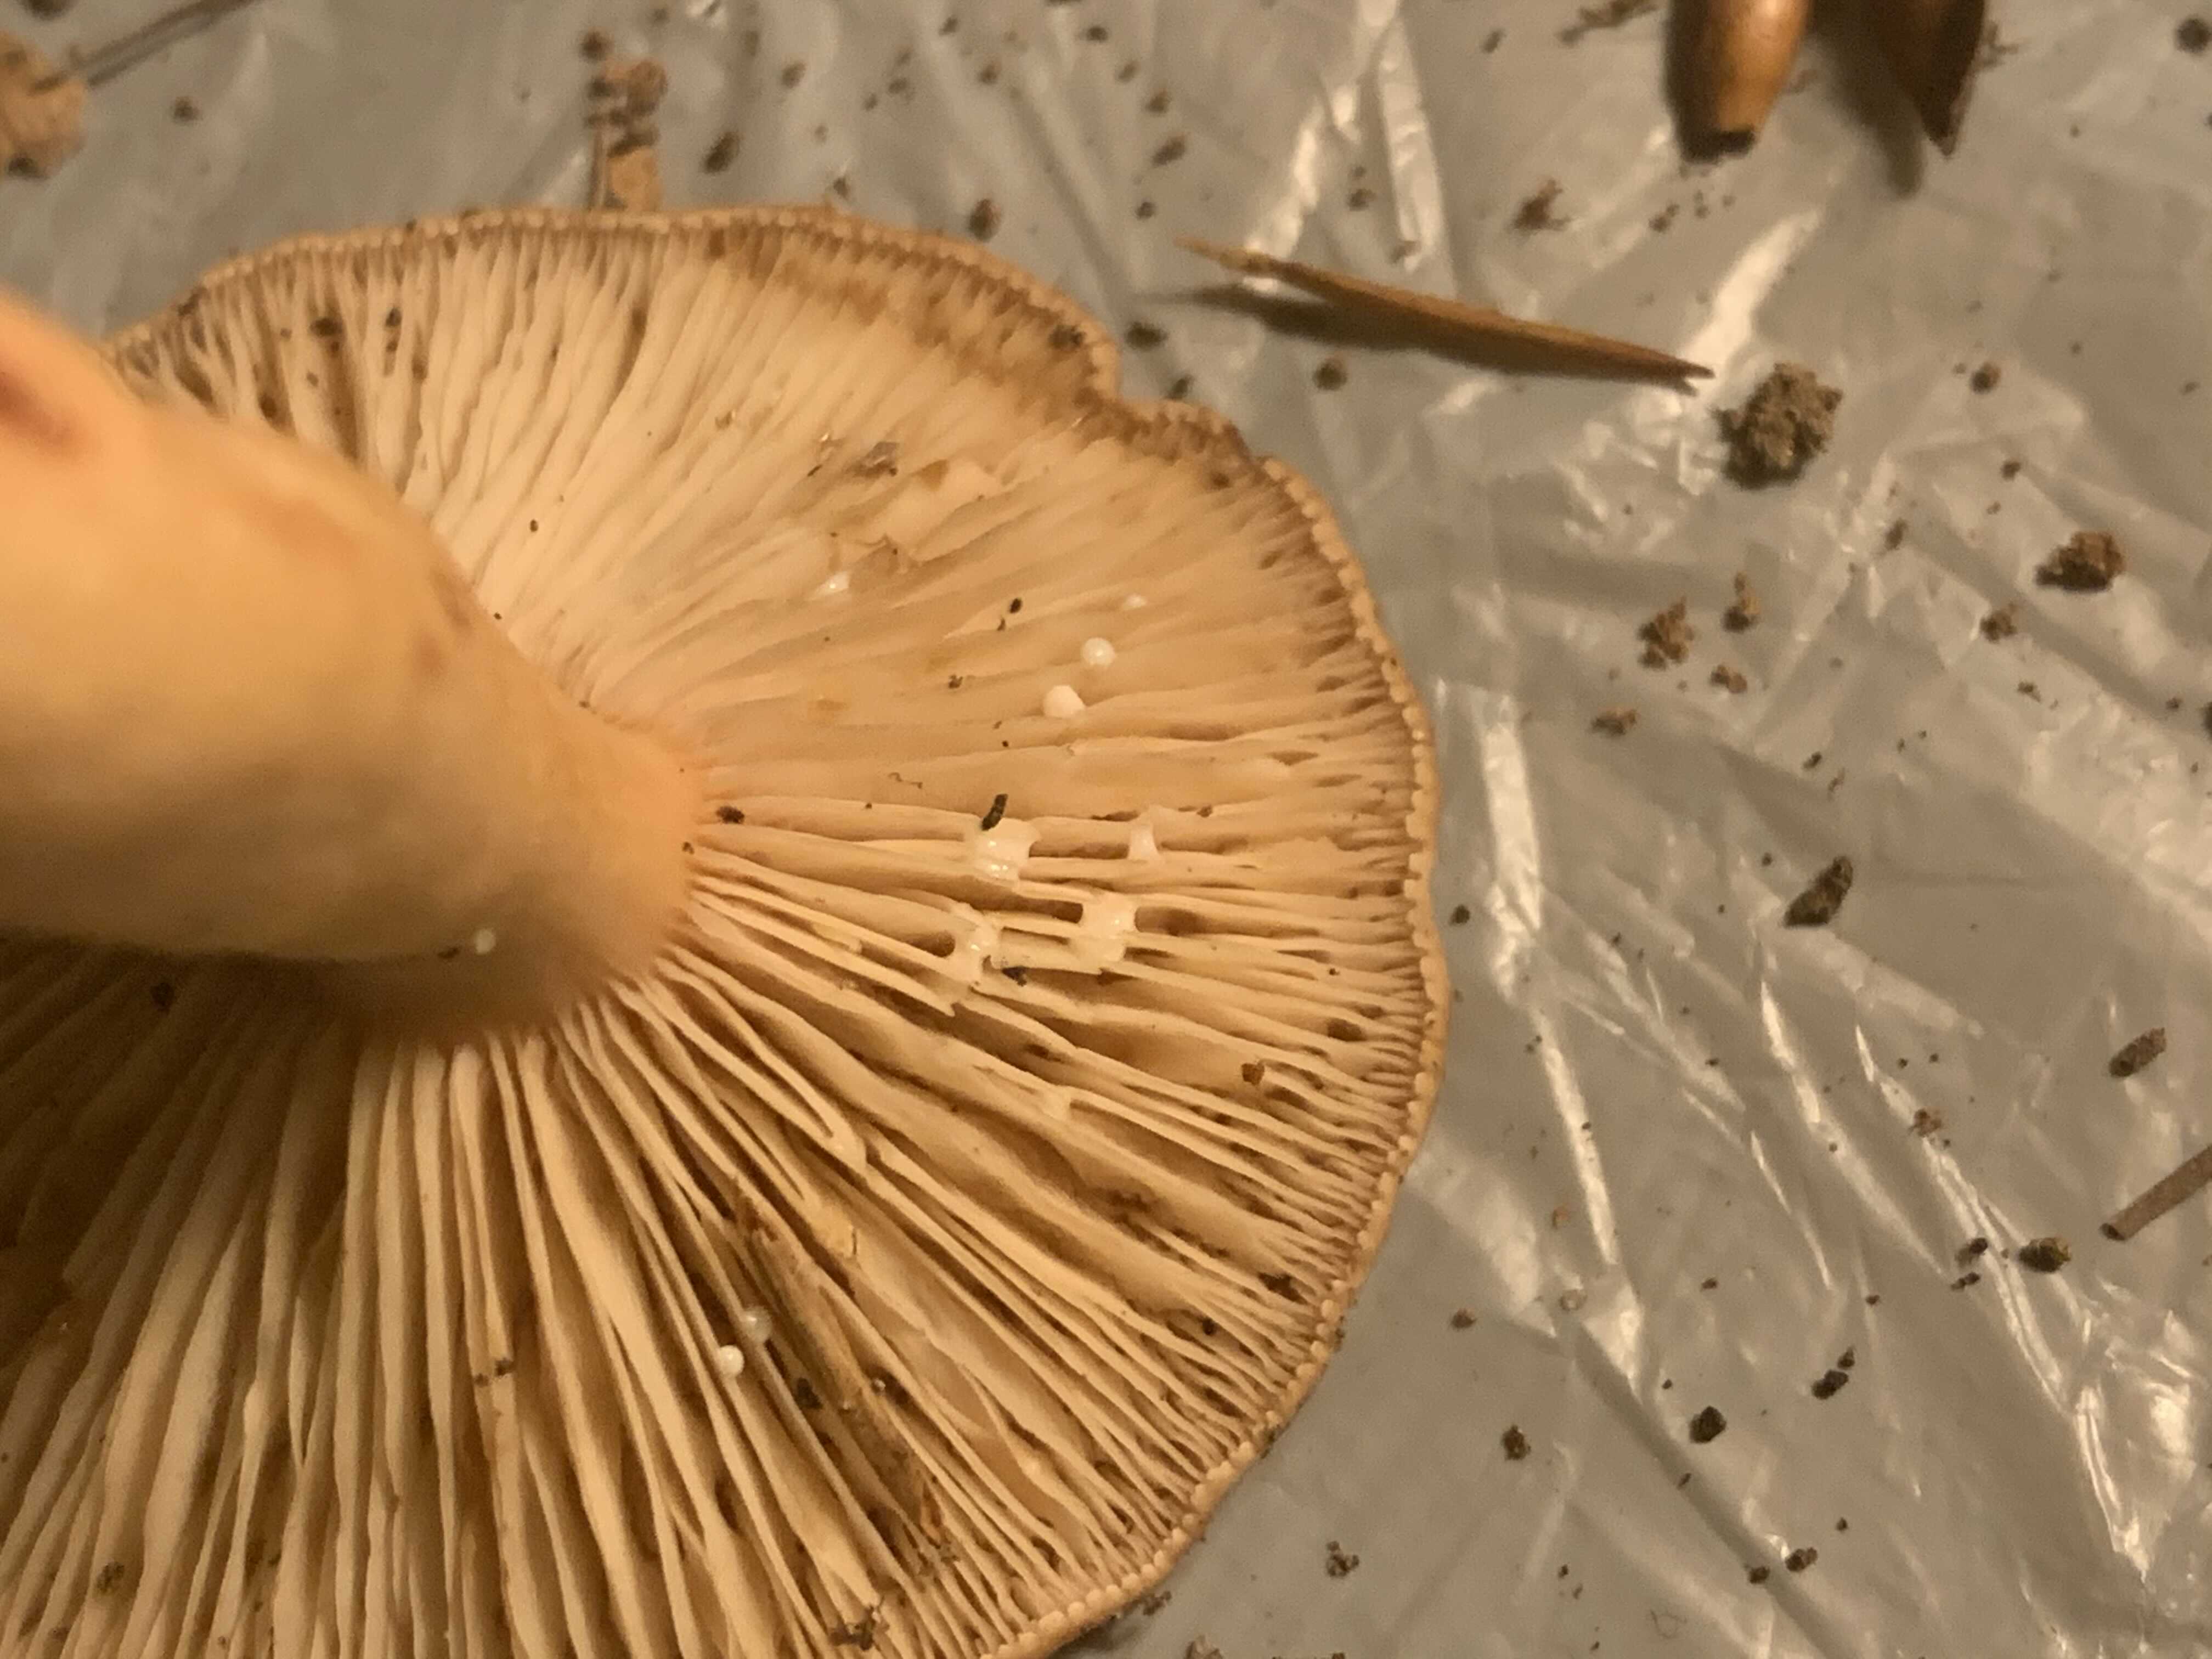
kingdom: Fungi
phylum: Basidiomycota
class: Agaricomycetes
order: Russulales
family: Russulaceae
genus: Lactarius
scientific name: Lactarius subdulcis
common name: sødlig mælkehat
